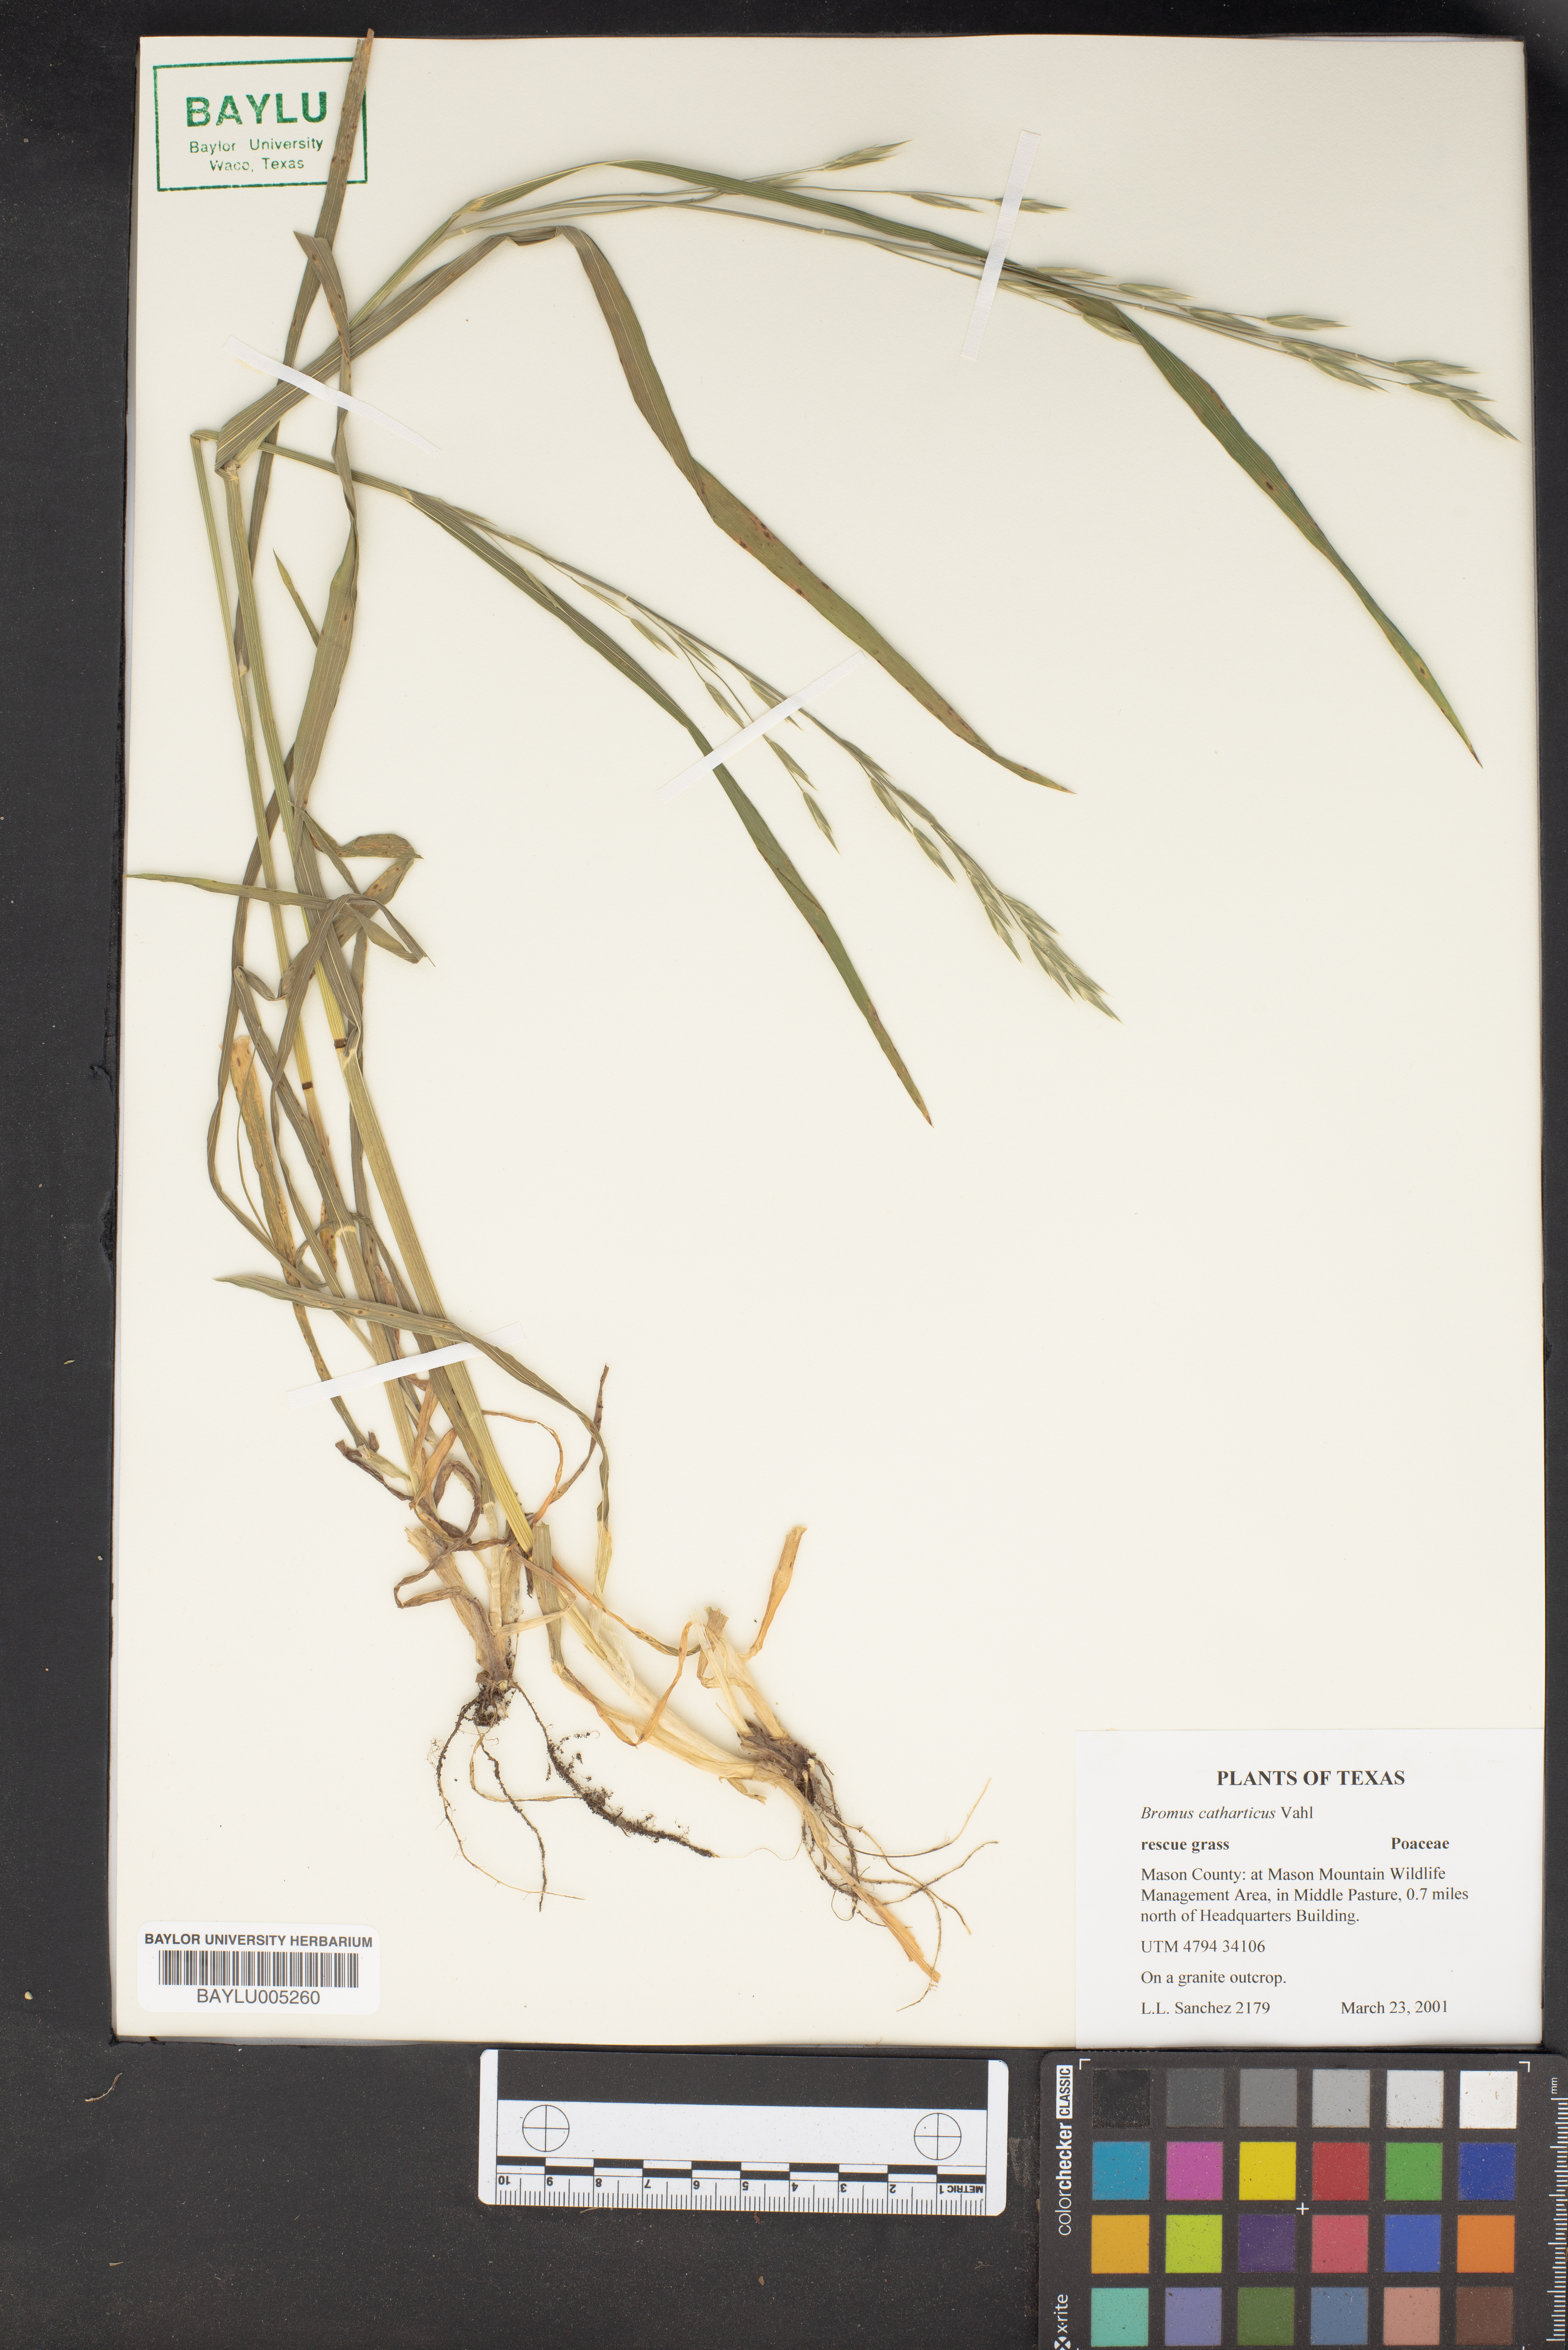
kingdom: Plantae
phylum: Tracheophyta
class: Liliopsida
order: Poales
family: Poaceae
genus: Bromus
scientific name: Bromus catharticus
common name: Rescuegrass
